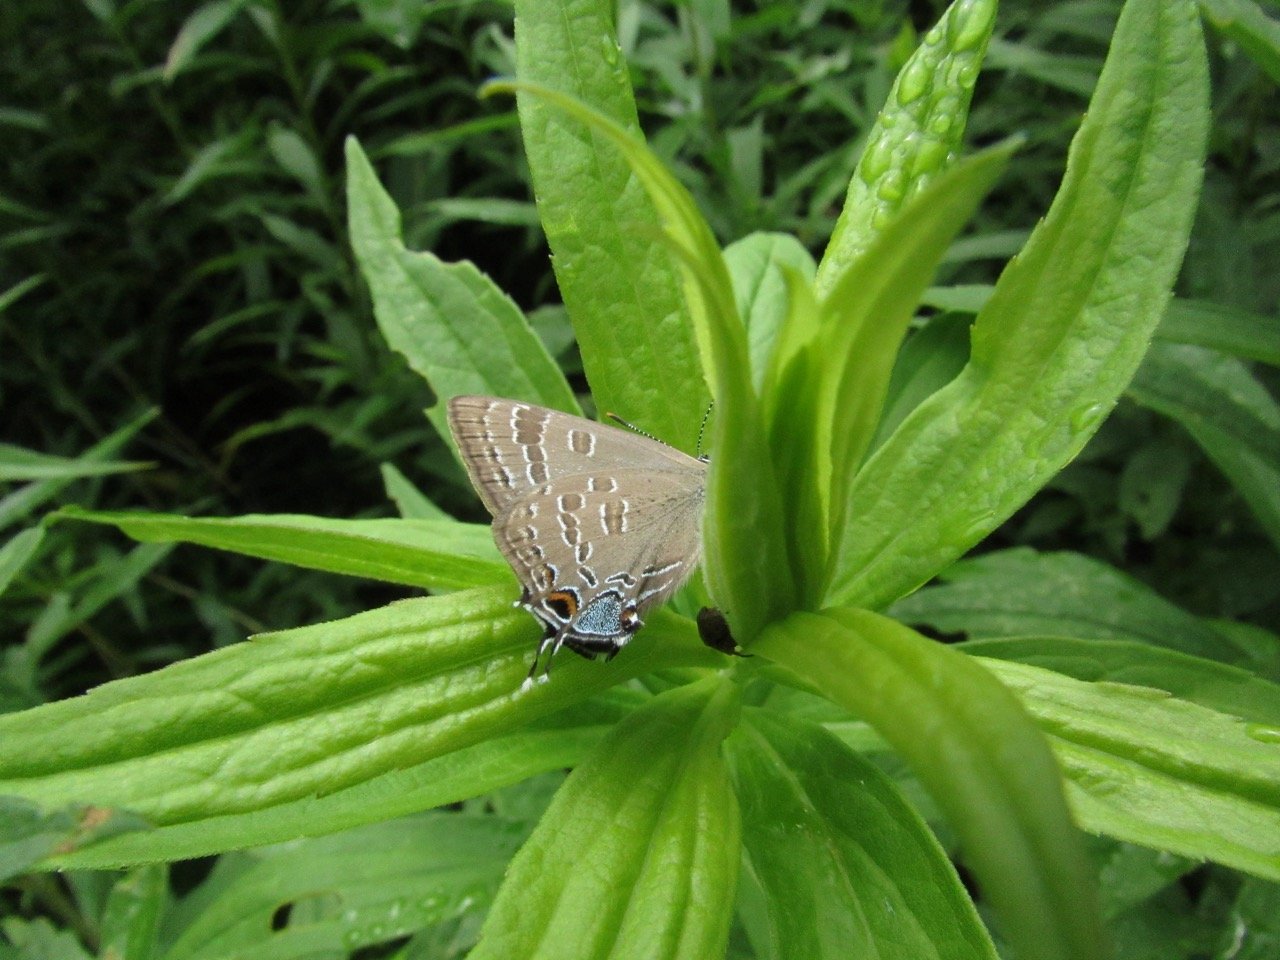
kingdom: Animalia
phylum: Arthropoda
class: Insecta
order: Lepidoptera
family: Lycaenidae
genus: Strymon
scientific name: Strymon caryaevorus
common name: Hickory Hairstreak
